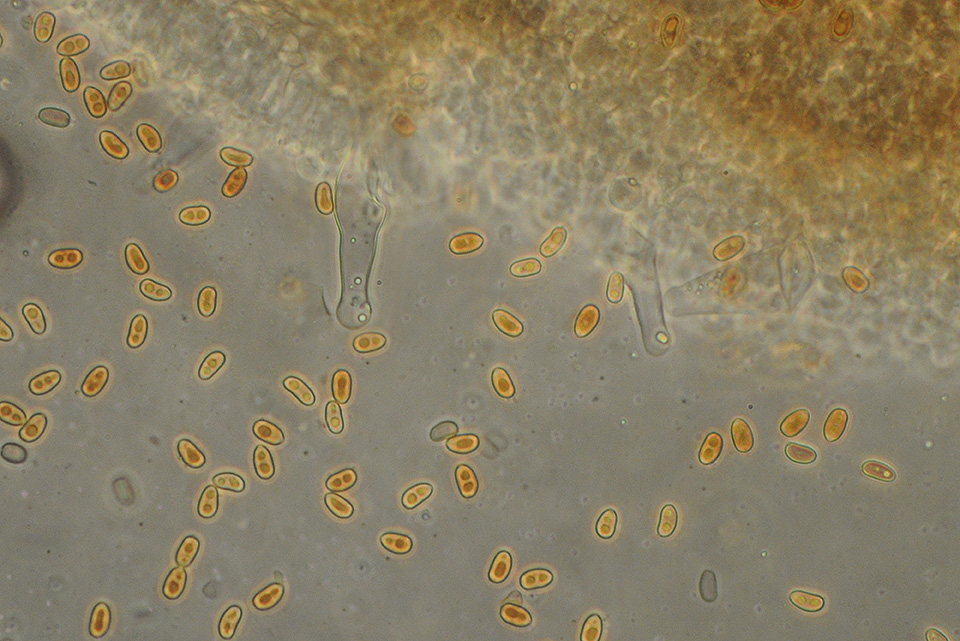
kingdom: Fungi
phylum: Basidiomycota
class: Agaricomycetes
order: Agaricales
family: Psathyrellaceae
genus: Psathyrella
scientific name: Psathyrella cortinarioides
